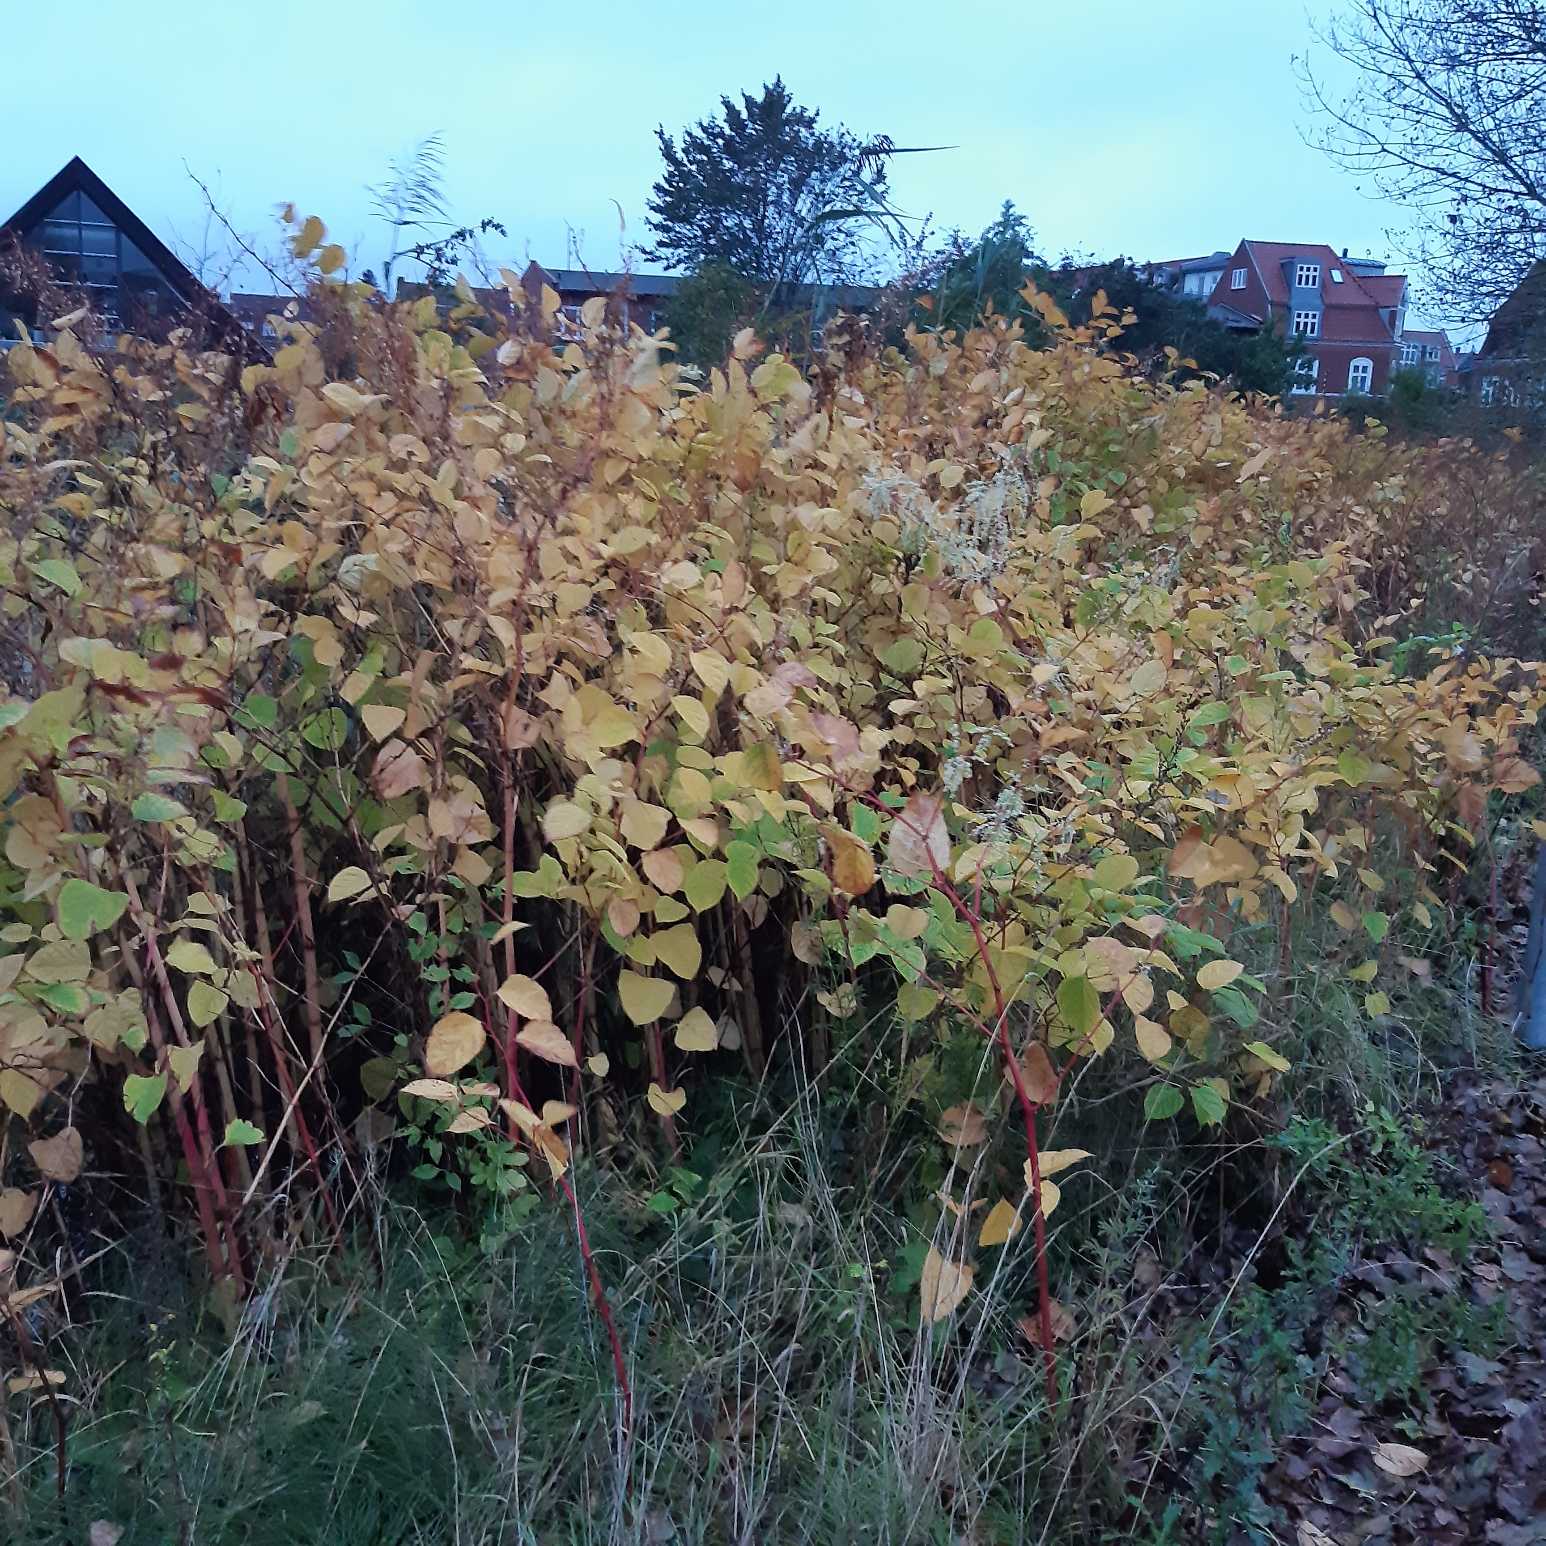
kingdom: Plantae
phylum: Tracheophyta
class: Magnoliopsida
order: Caryophyllales
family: Polygonaceae
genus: Reynoutria
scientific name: Reynoutria japonica
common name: Japan-pileurt
